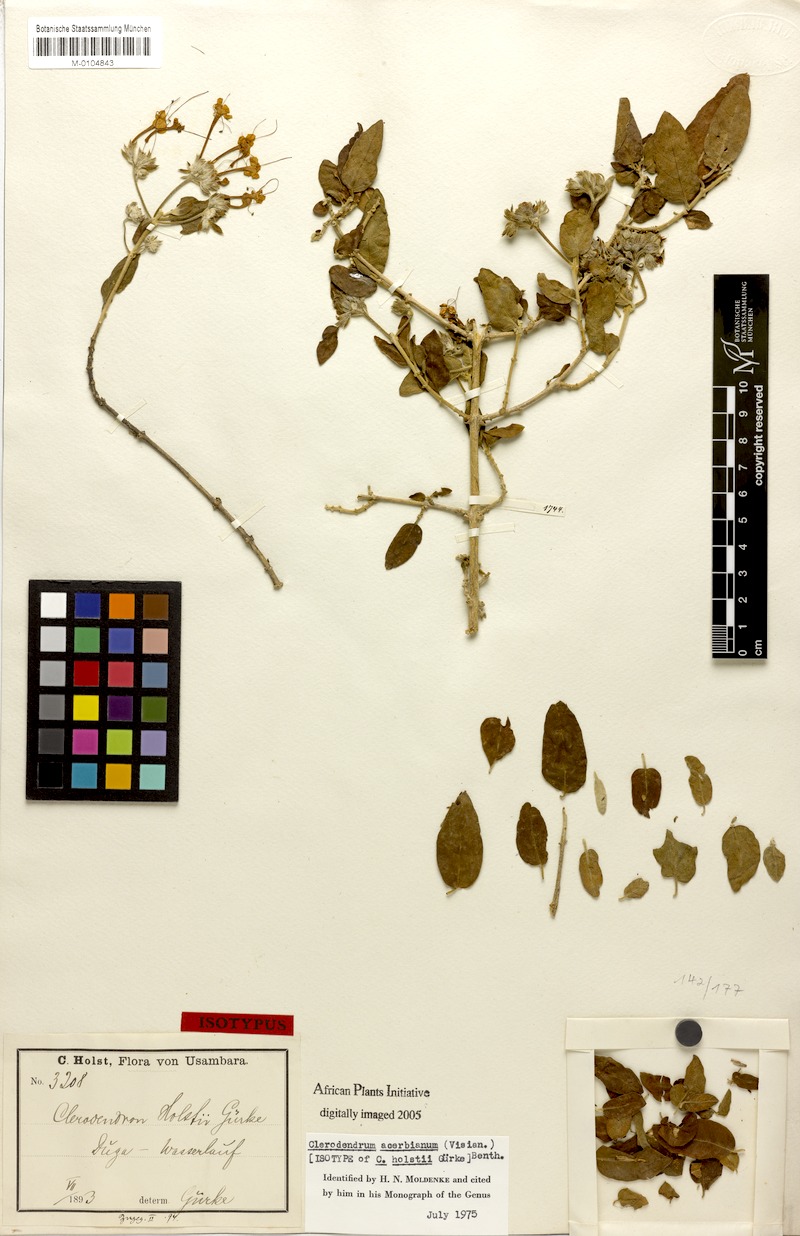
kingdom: Plantae
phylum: Tracheophyta
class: Magnoliopsida
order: Lamiales
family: Lamiaceae
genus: Volkameria
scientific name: Volkameria acerbiana
